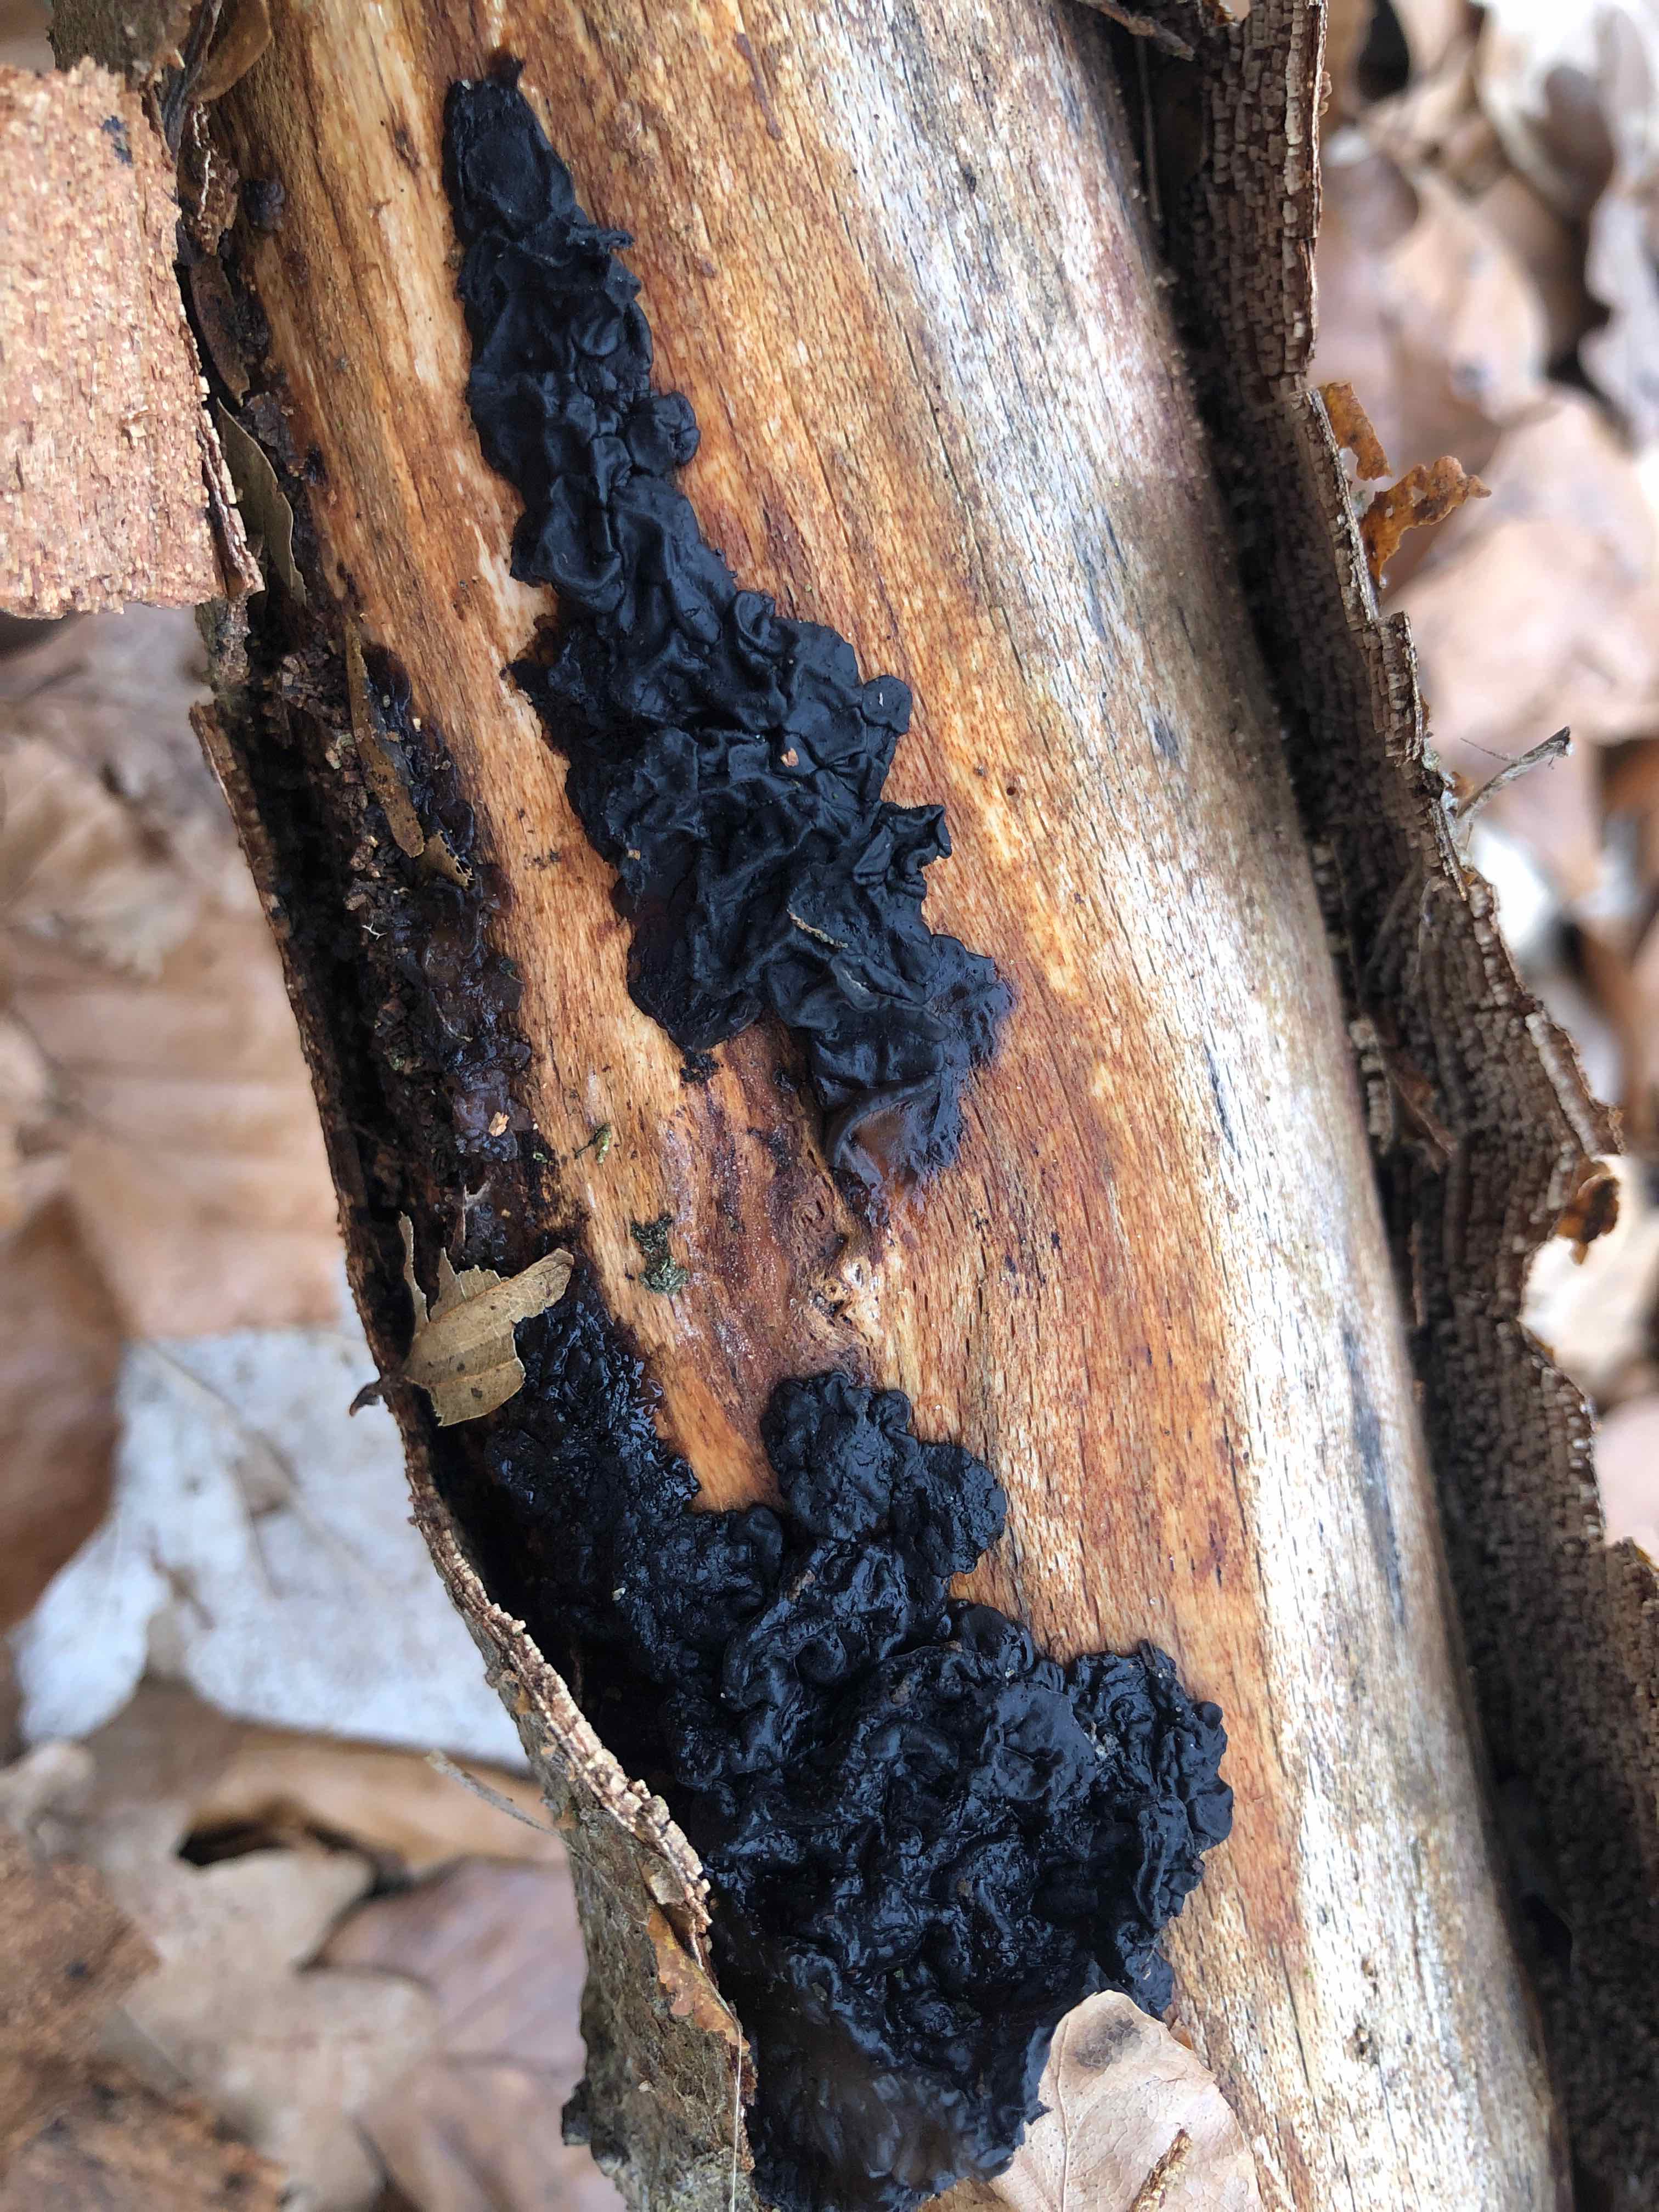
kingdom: Fungi
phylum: Basidiomycota
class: Agaricomycetes
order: Auriculariales
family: Auriculariaceae
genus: Exidia
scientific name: Exidia nigricans
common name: almindelig bævretop
